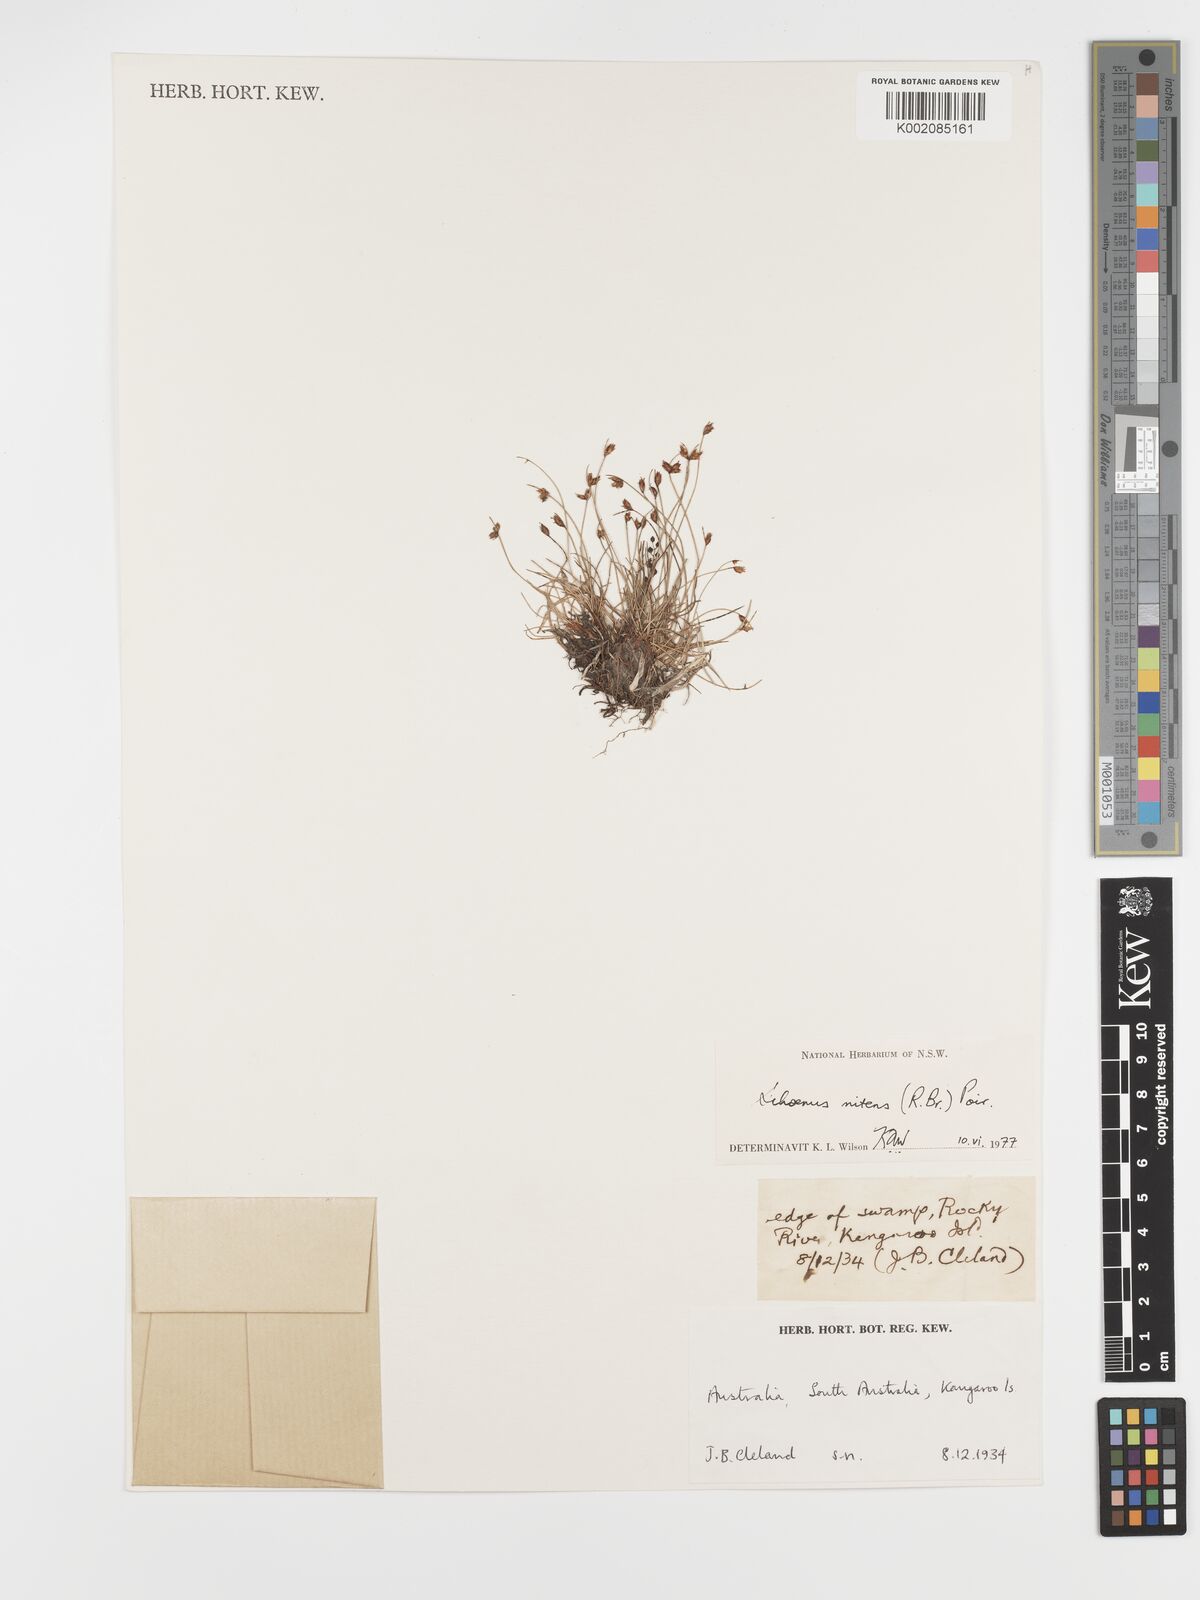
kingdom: Plantae
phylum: Tracheophyta
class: Liliopsida
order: Poales
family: Cyperaceae
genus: Schoenus
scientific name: Schoenus nitens
